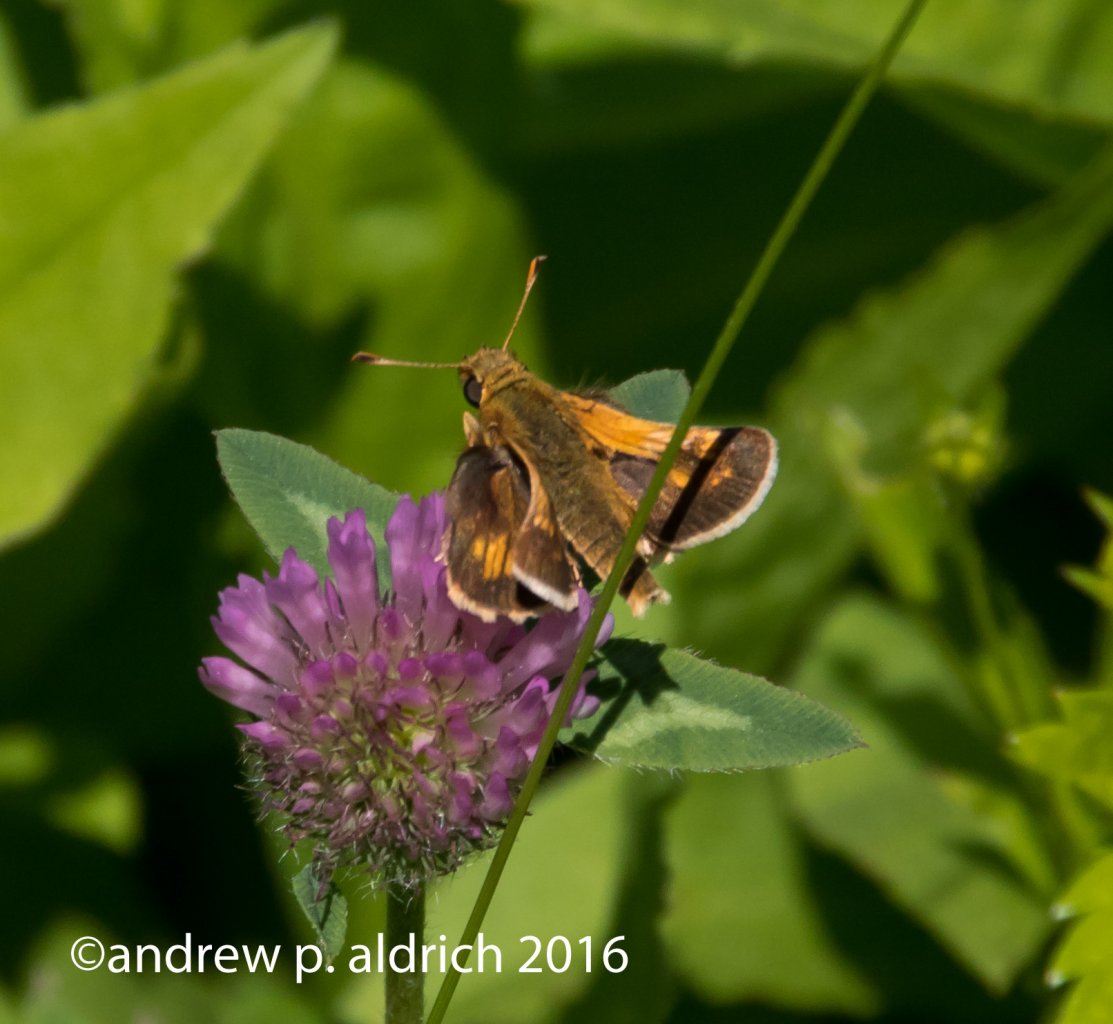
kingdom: Animalia
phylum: Arthropoda
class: Insecta
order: Lepidoptera
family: Hesperiidae
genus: Polites
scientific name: Polites
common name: Long Dash Skipper
